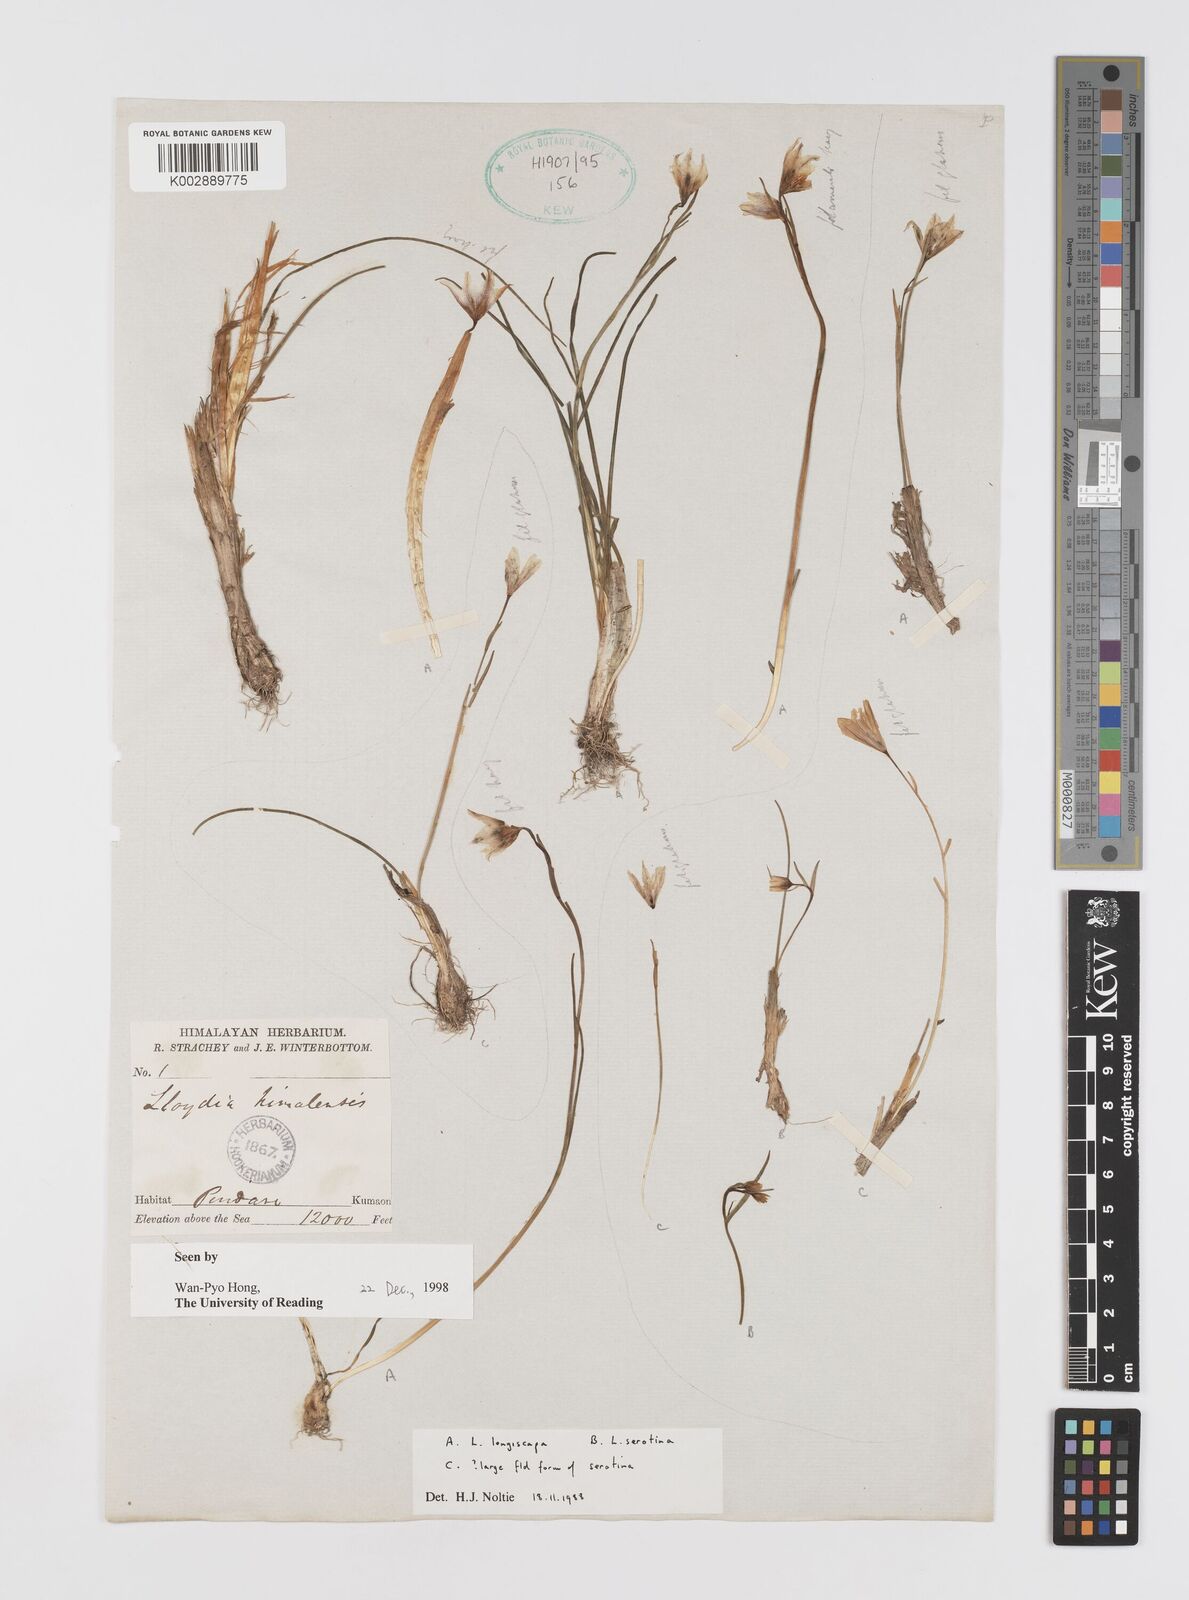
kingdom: Plantae
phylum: Tracheophyta
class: Liliopsida
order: Liliales
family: Liliaceae
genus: Gagea
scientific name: Gagea longiscapa
